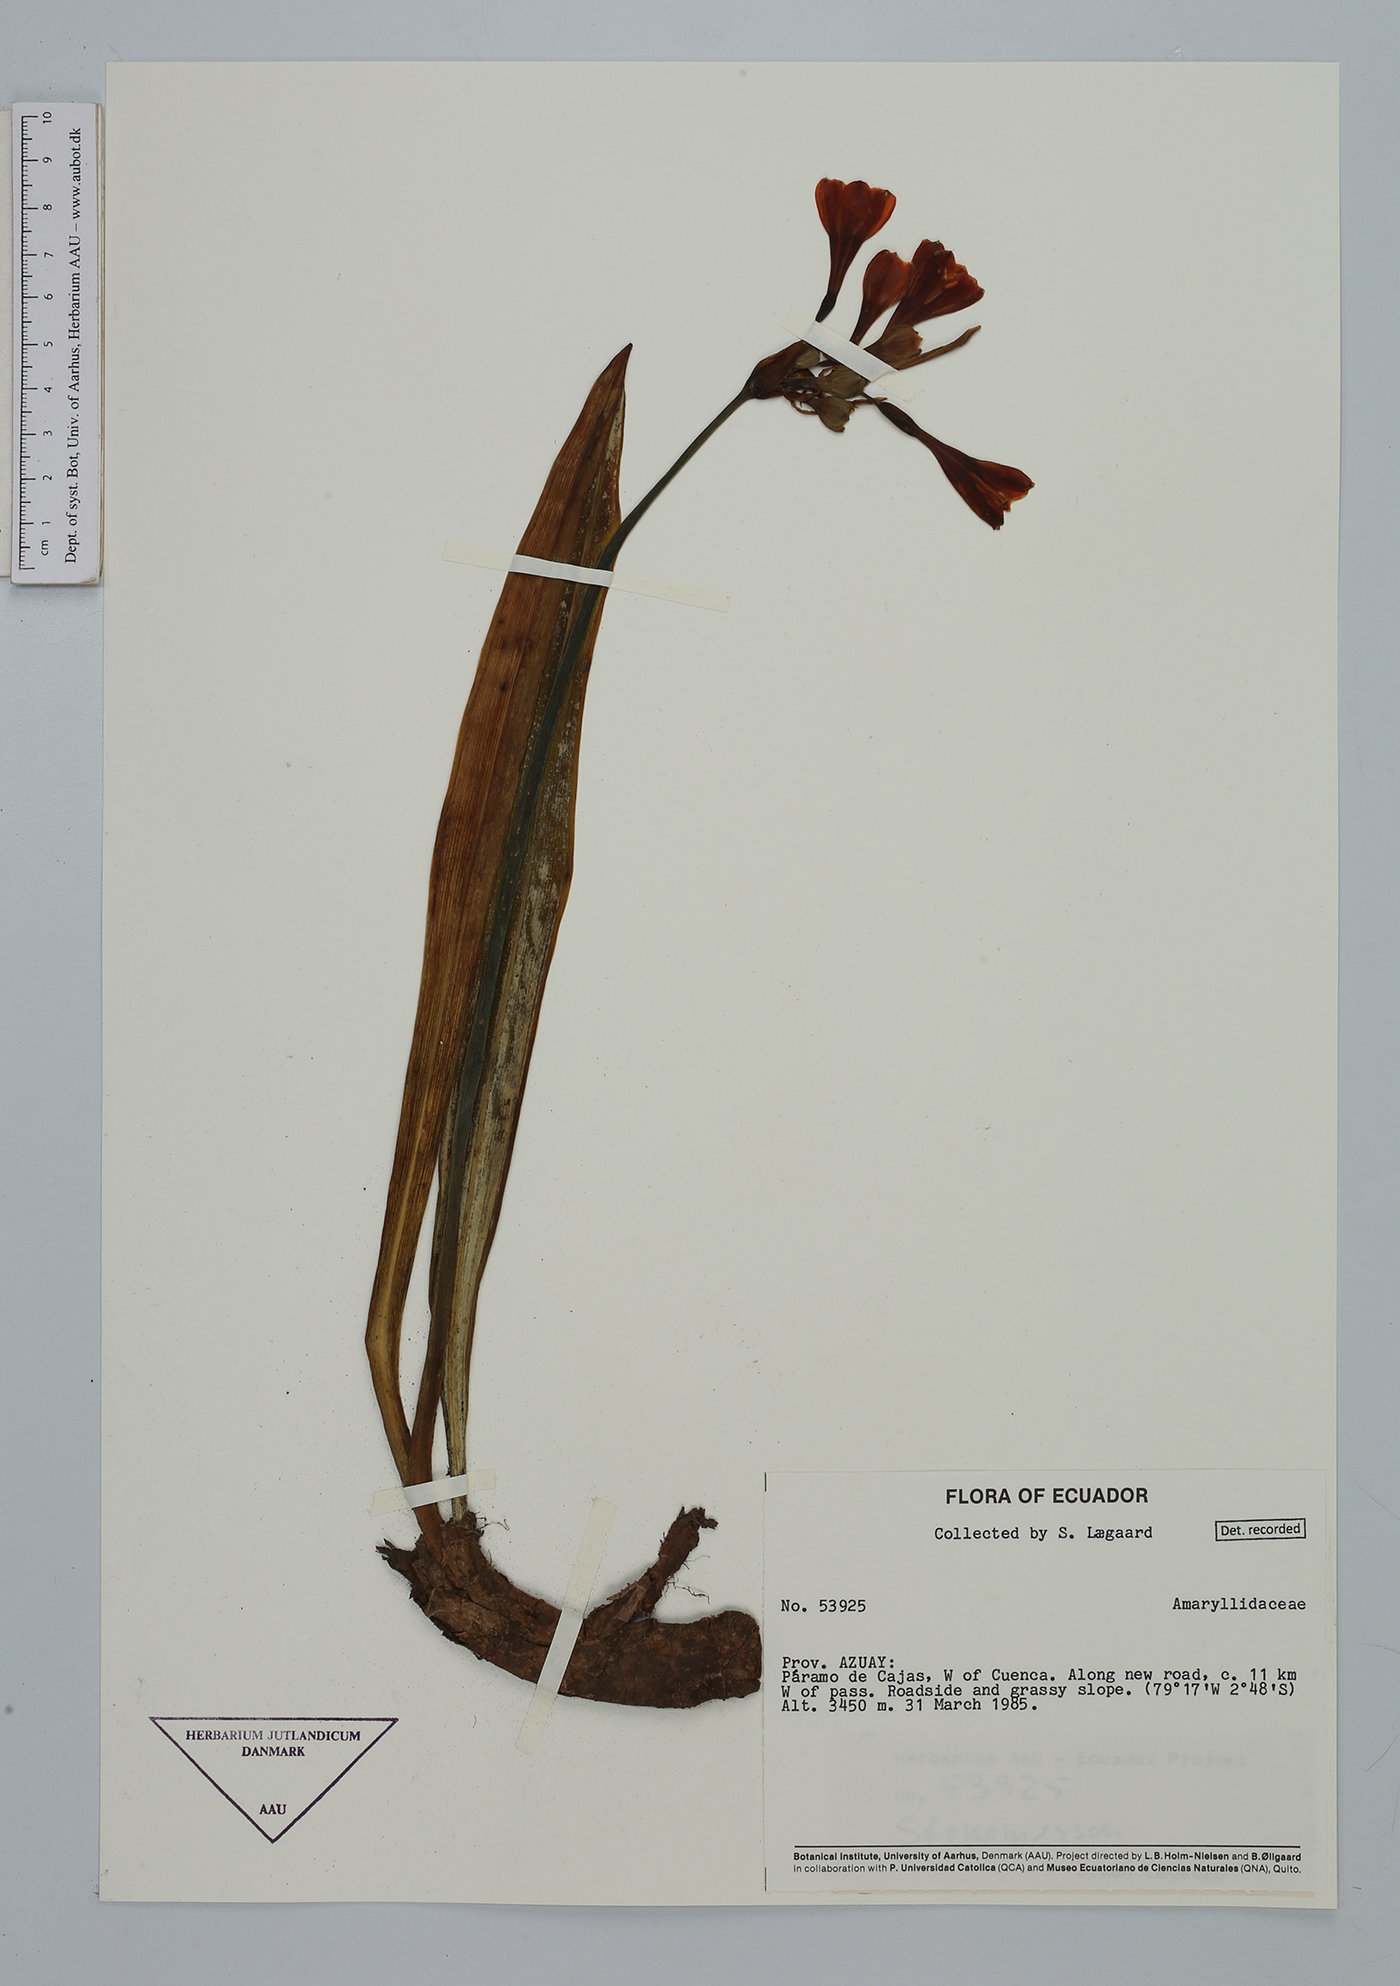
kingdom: Plantae
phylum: Tracheophyta
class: Liliopsida
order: Asparagales
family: Amaryllidaceae
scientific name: Amaryllidaceae
